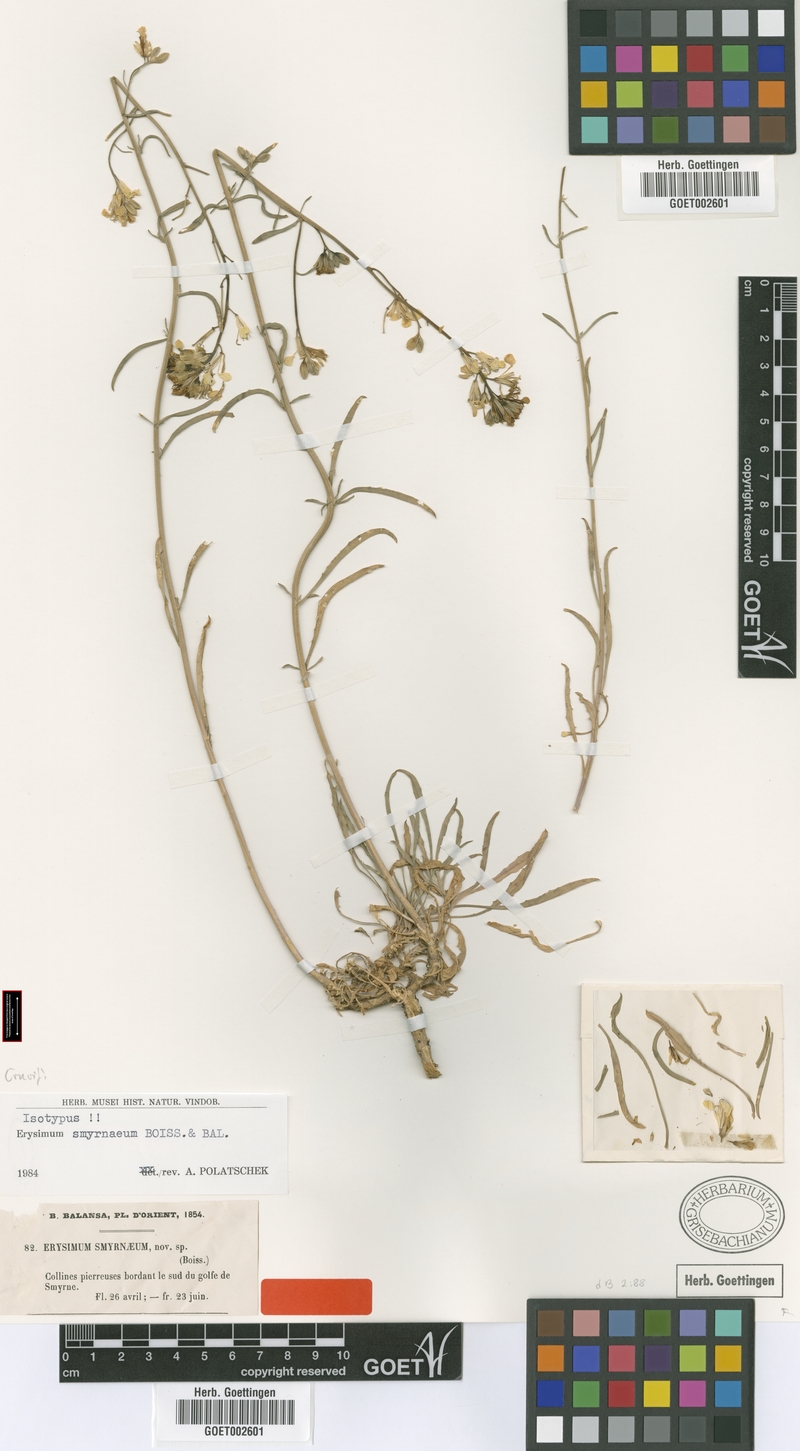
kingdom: Plantae
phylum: Tracheophyta
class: Magnoliopsida
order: Brassicales
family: Brassicaceae
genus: Erysimum
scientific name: Erysimum smyrnaeum
